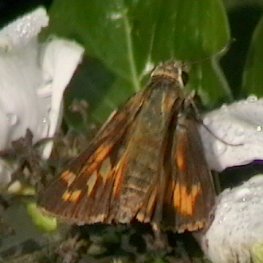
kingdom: Animalia
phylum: Arthropoda
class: Insecta
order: Lepidoptera
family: Hesperiidae
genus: Atalopedes
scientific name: Atalopedes campestris
